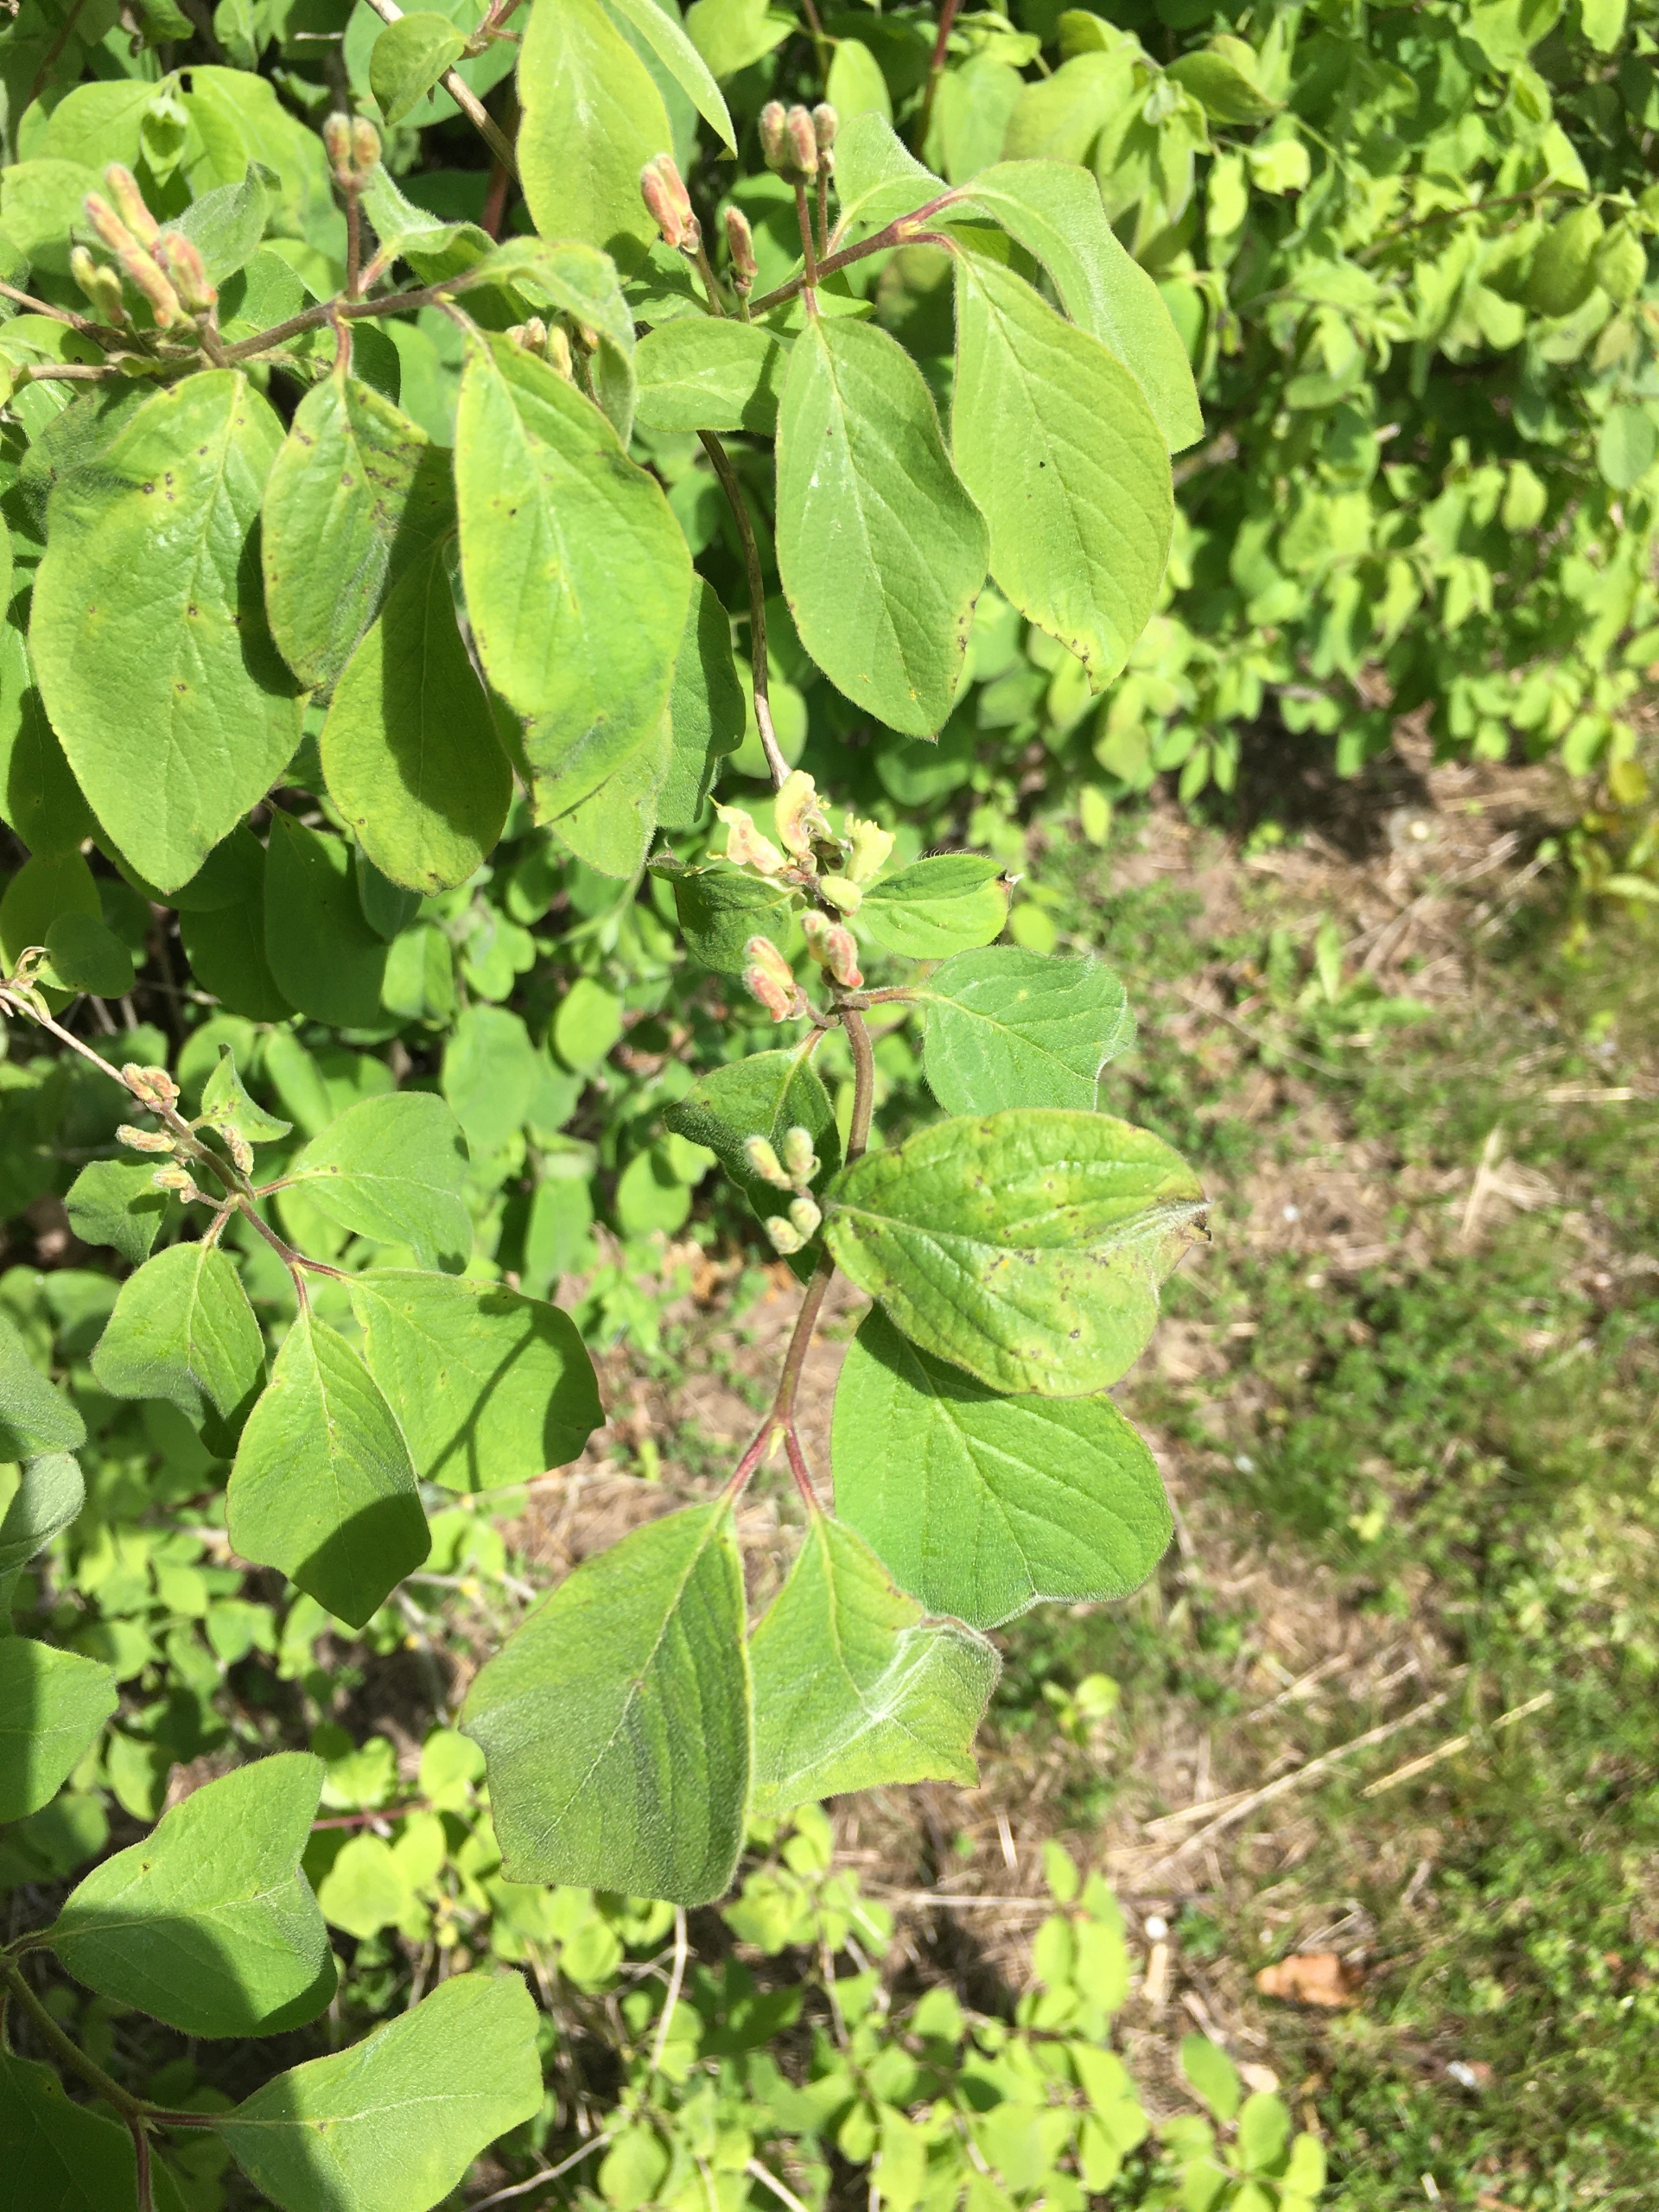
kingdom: Plantae
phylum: Tracheophyta
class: Magnoliopsida
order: Dipsacales
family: Caprifoliaceae
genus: Lonicera
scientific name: Lonicera xylosteum
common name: Dunet gedeblad
